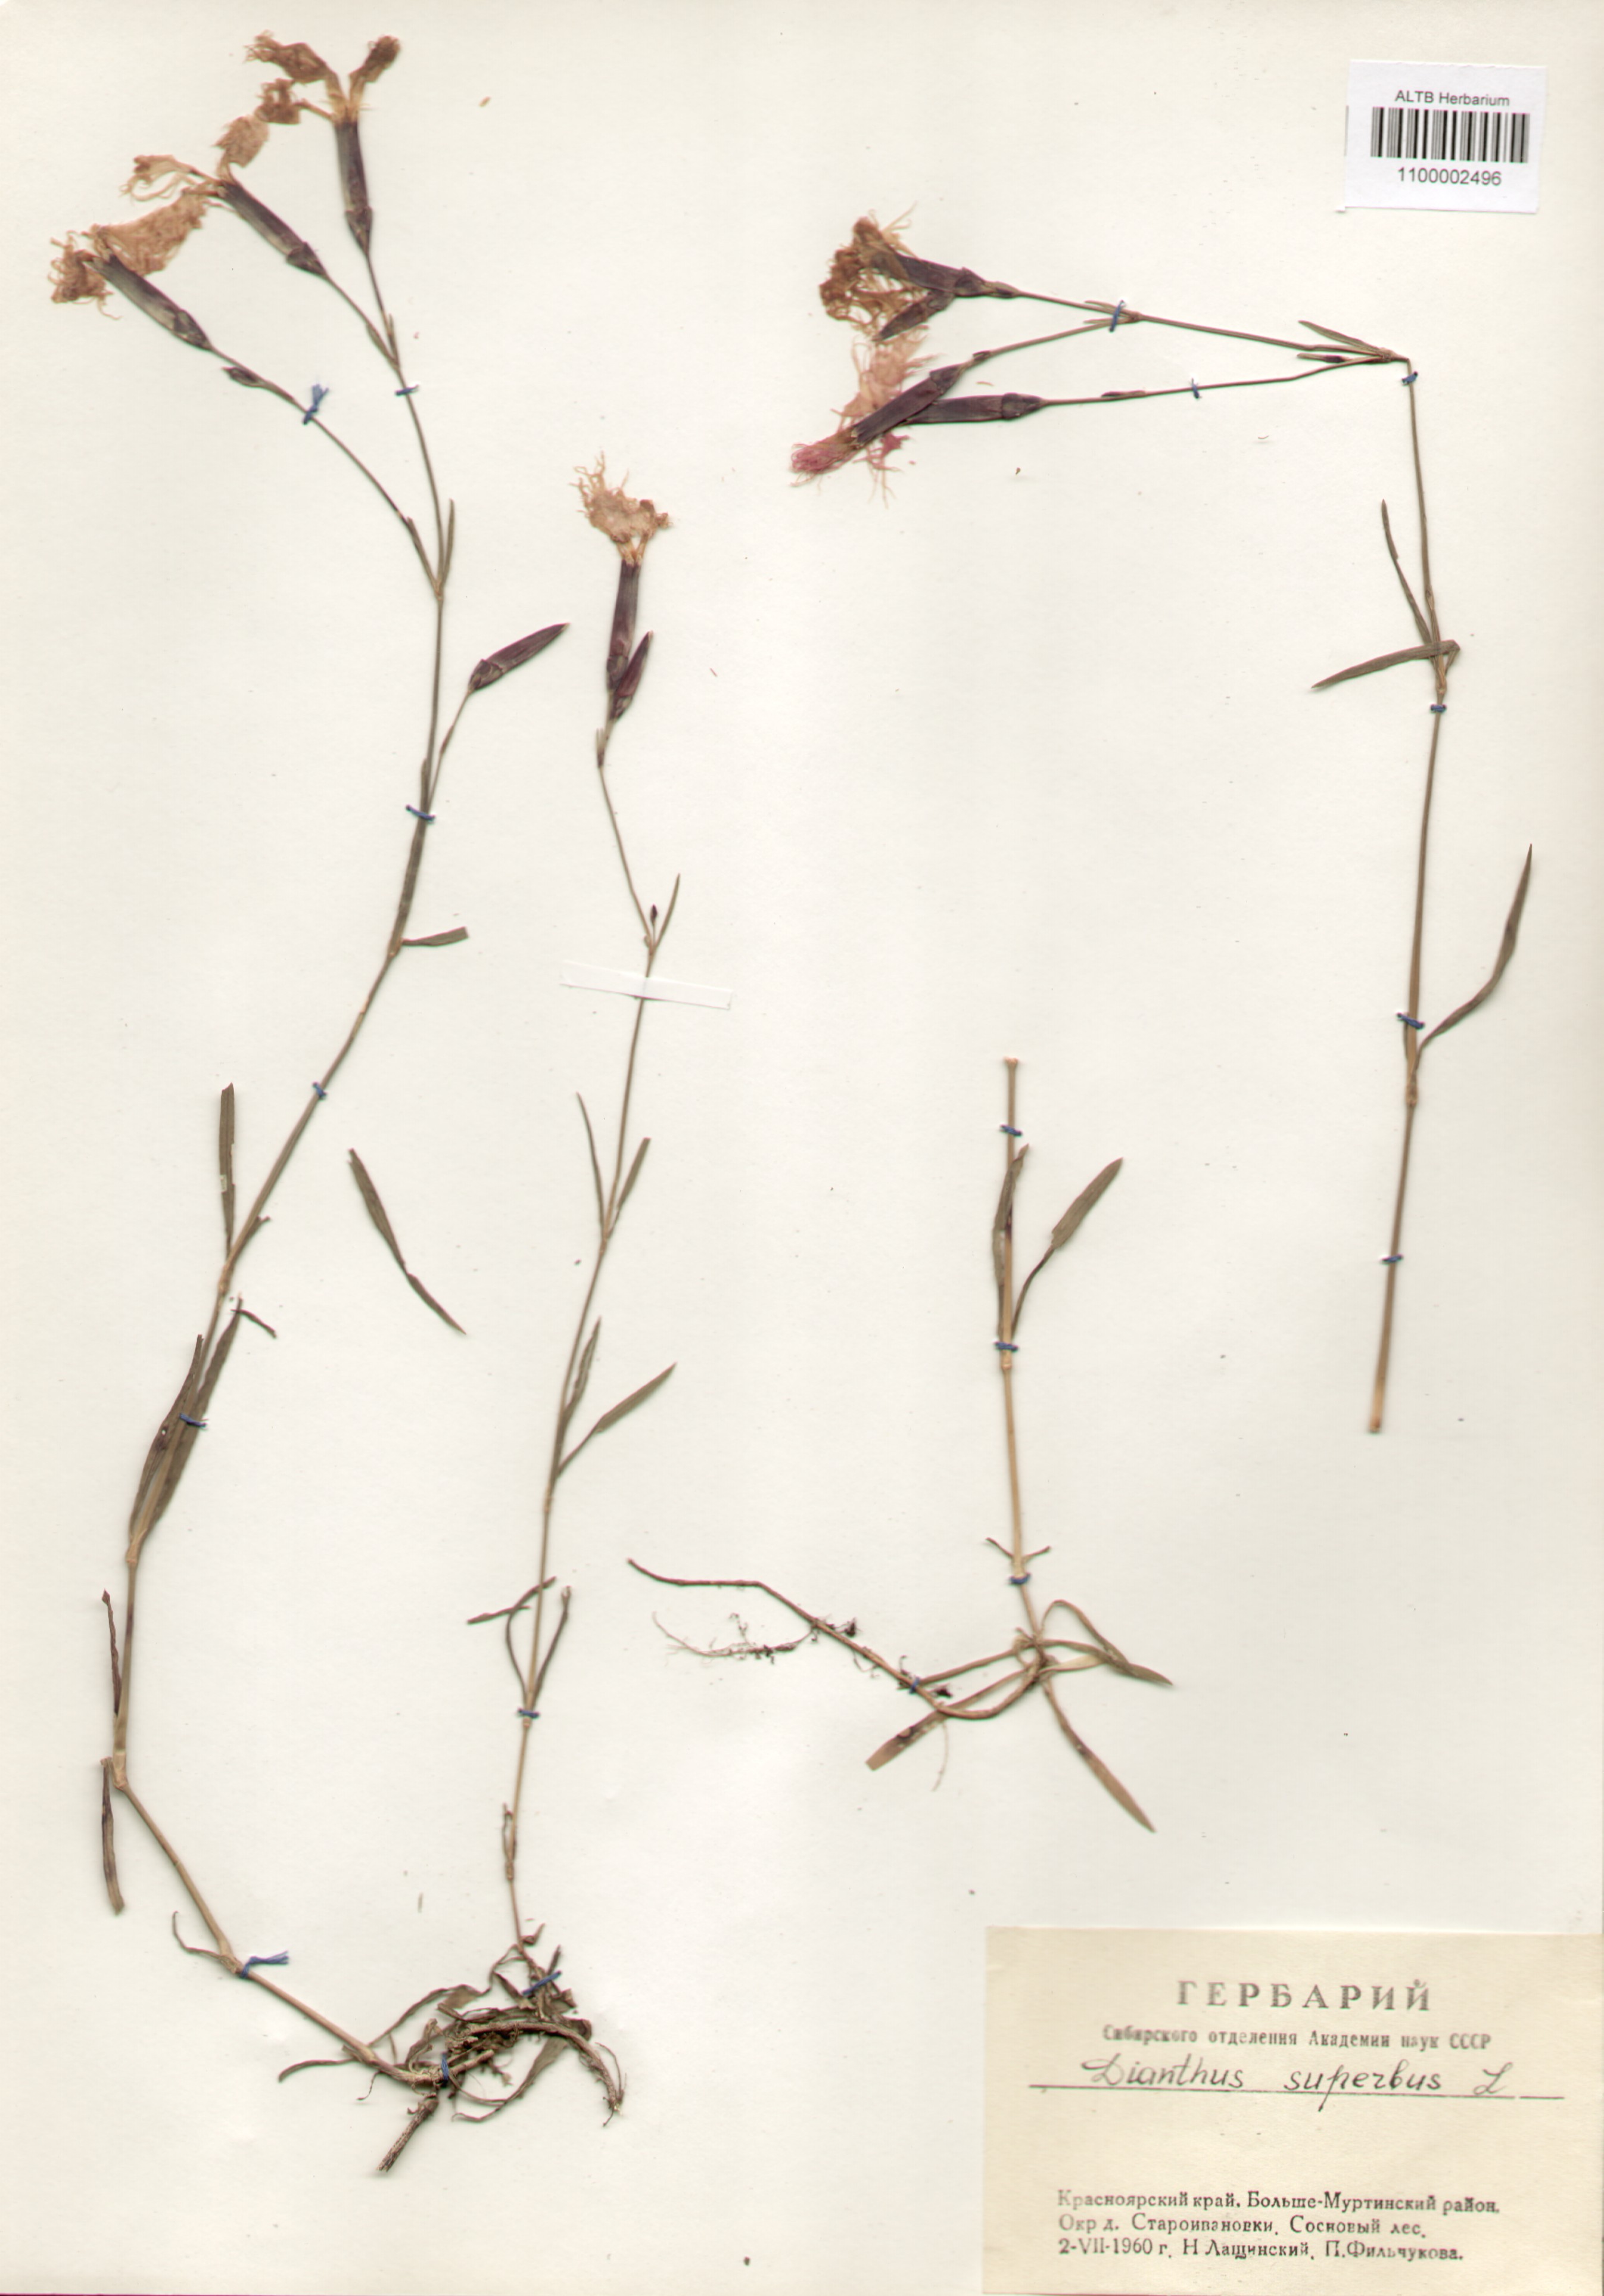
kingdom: Plantae
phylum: Tracheophyta
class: Magnoliopsida
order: Caryophyllales
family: Caryophyllaceae
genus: Dianthus
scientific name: Dianthus superbus
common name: Fringed pink
